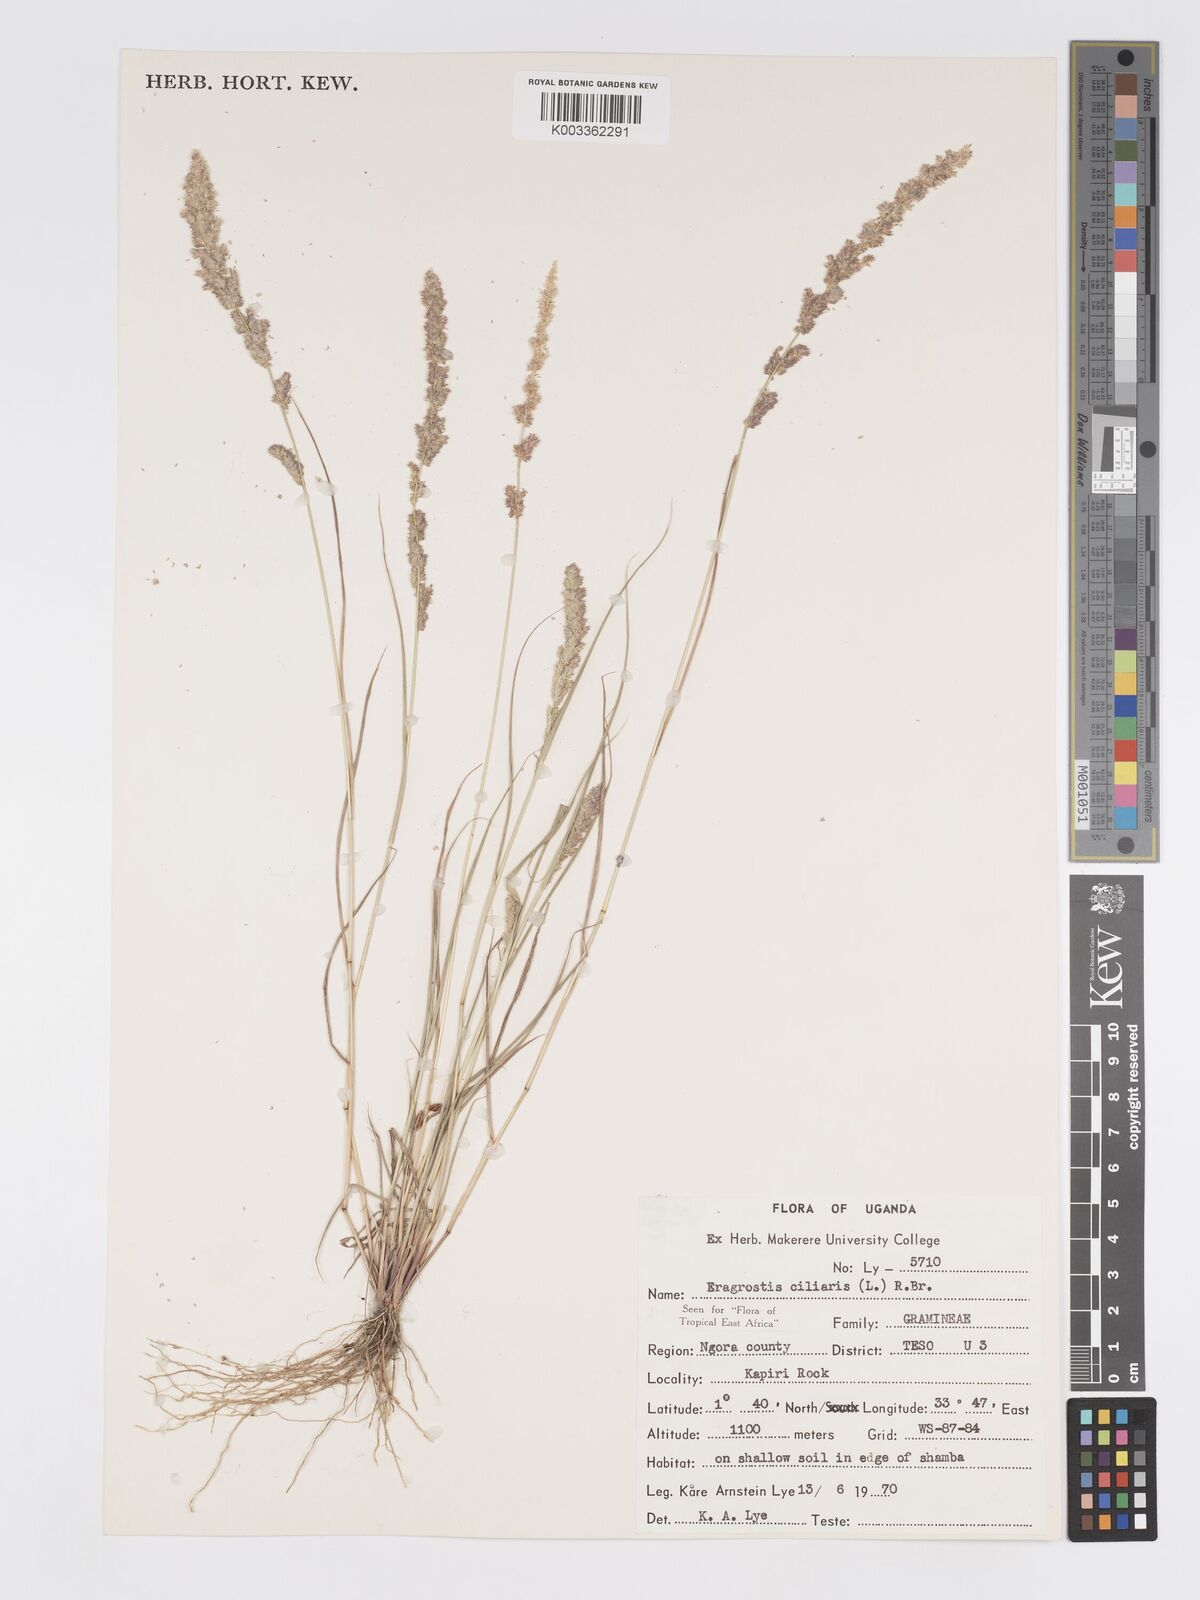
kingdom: Plantae
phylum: Tracheophyta
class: Liliopsida
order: Poales
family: Poaceae
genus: Eragrostis
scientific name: Eragrostis ciliaris
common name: Gophertail lovegrass
